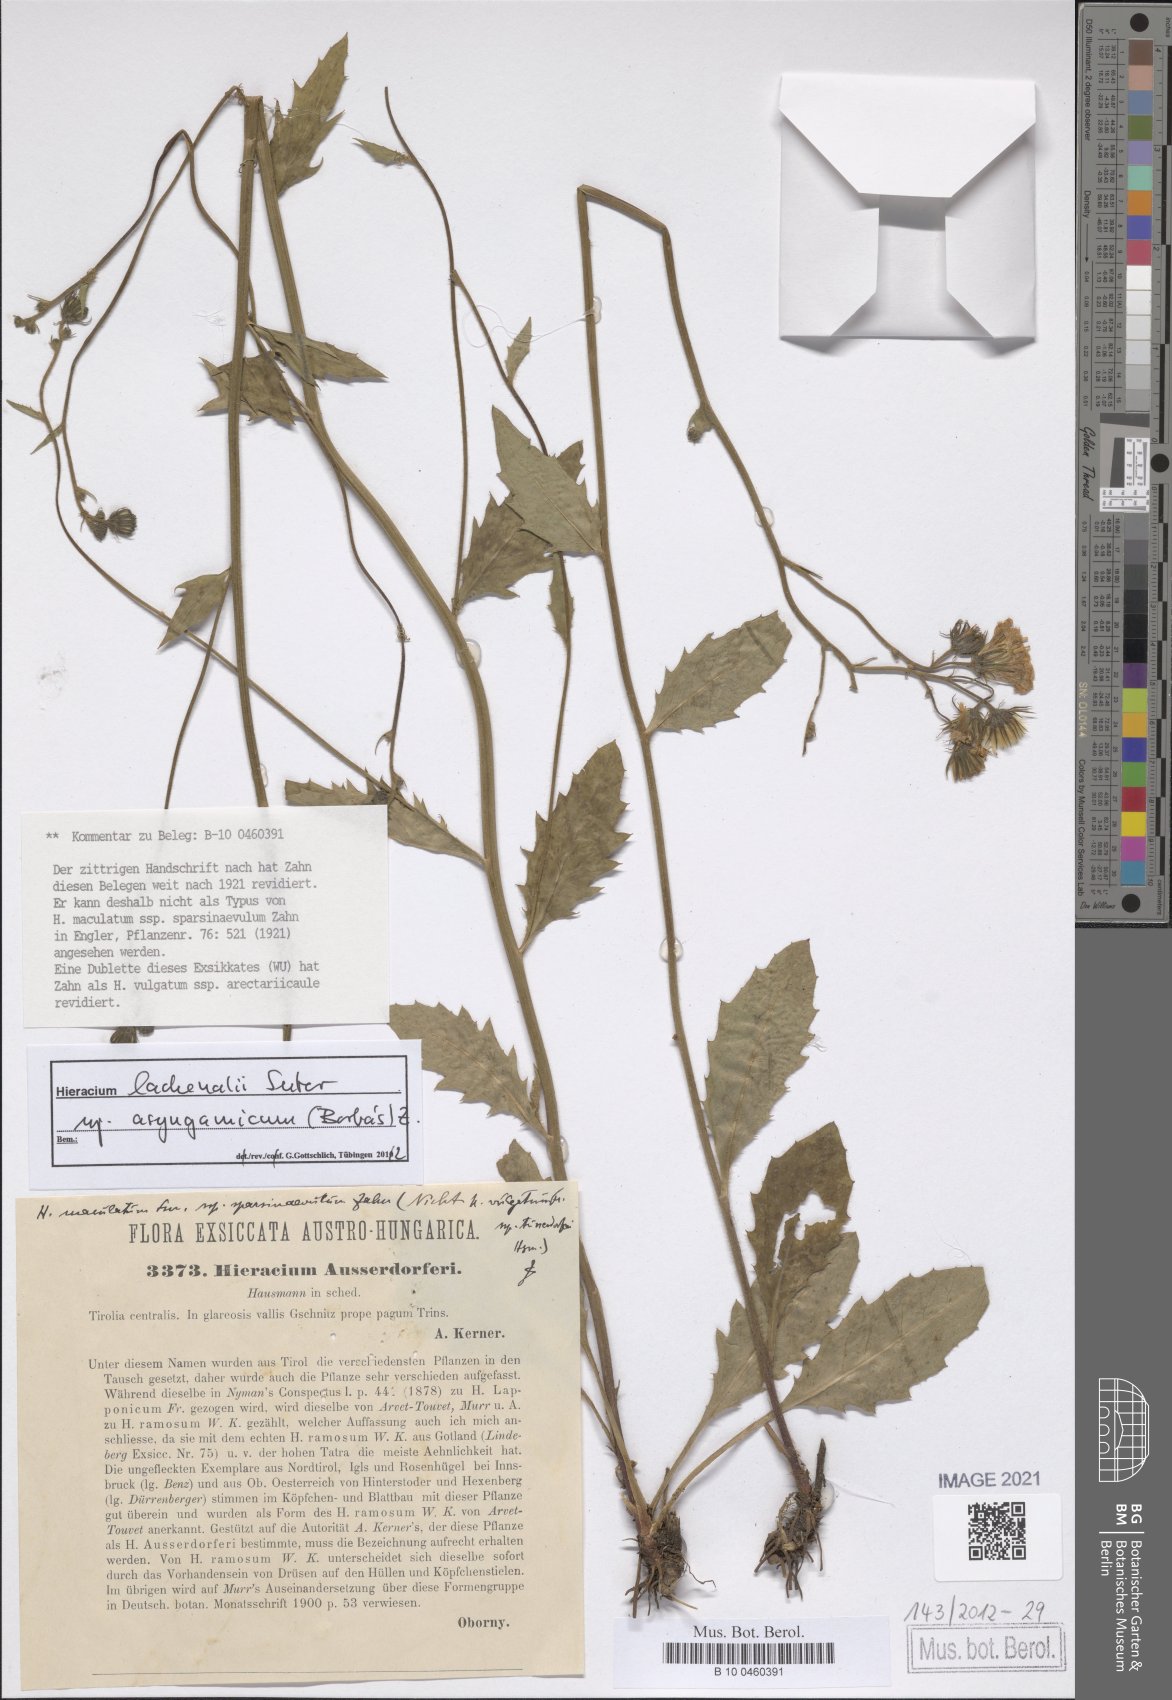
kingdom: Plantae
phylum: Tracheophyta
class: Magnoliopsida
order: Asterales
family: Asteraceae
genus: Hieracium
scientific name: Hieracium lachenalii
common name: Common hawkweed
